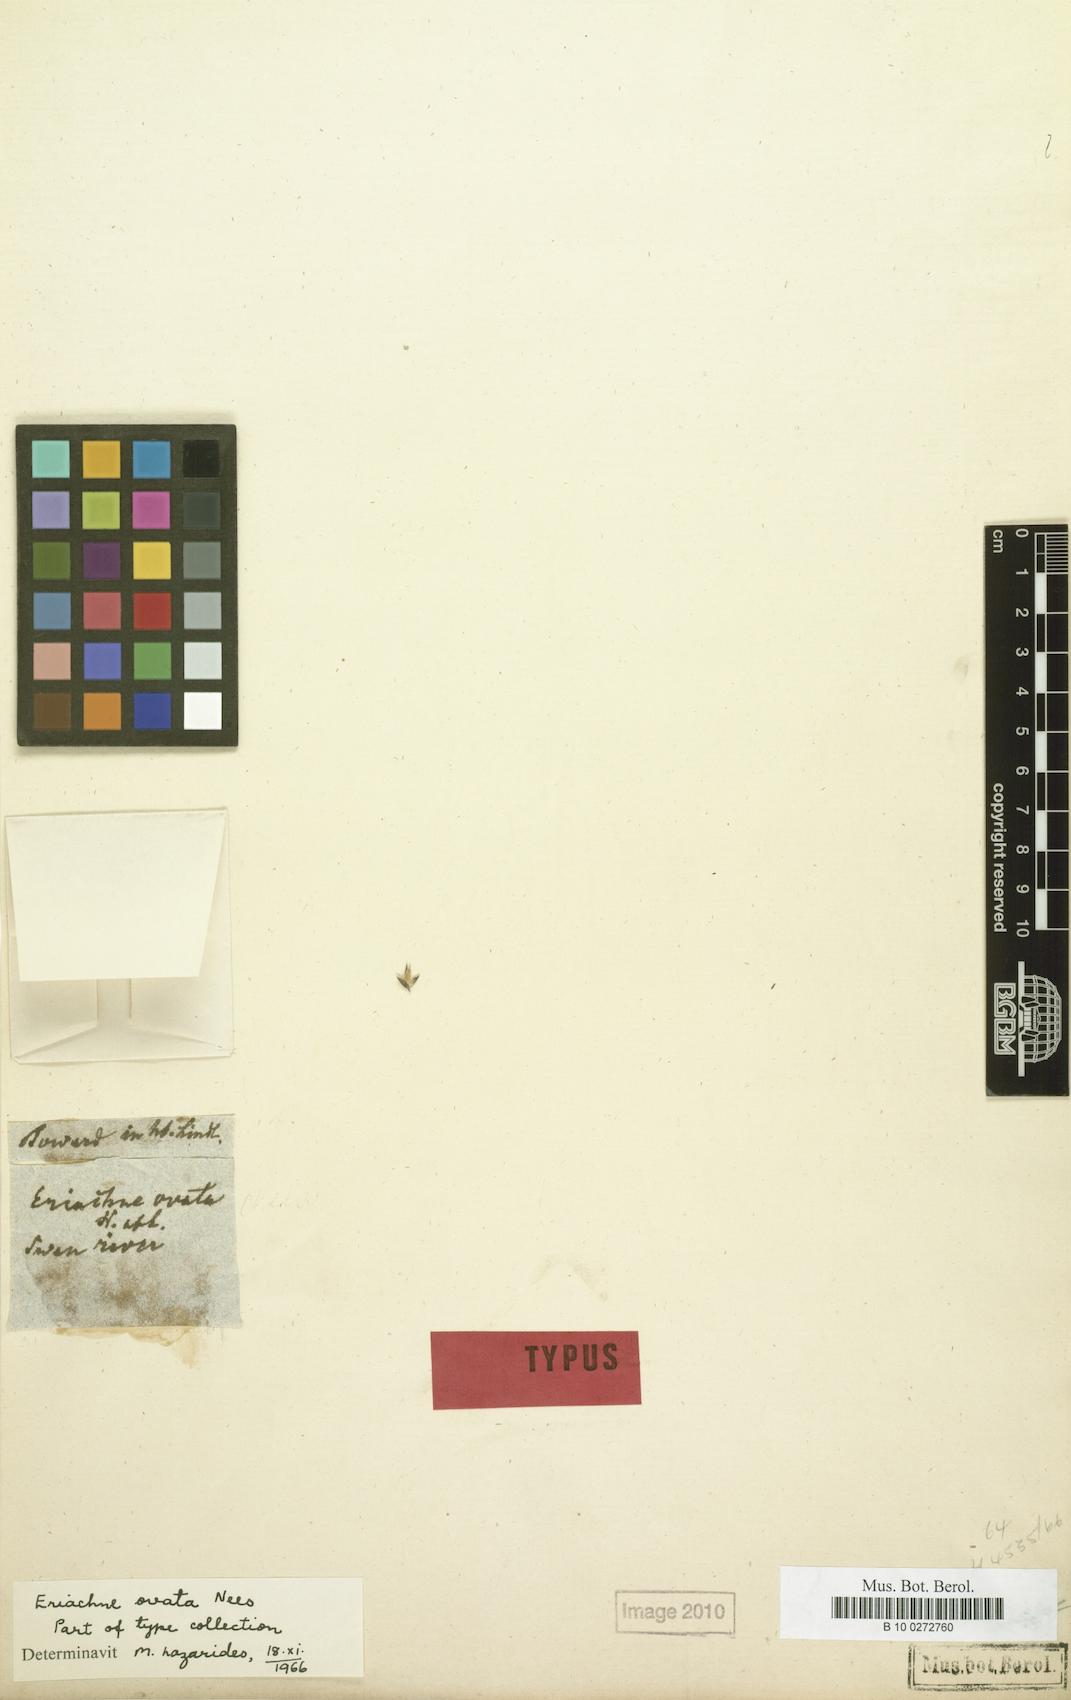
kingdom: Plantae
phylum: Tracheophyta
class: Liliopsida
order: Poales
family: Poaceae
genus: Eriachne
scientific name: Eriachne ovata
